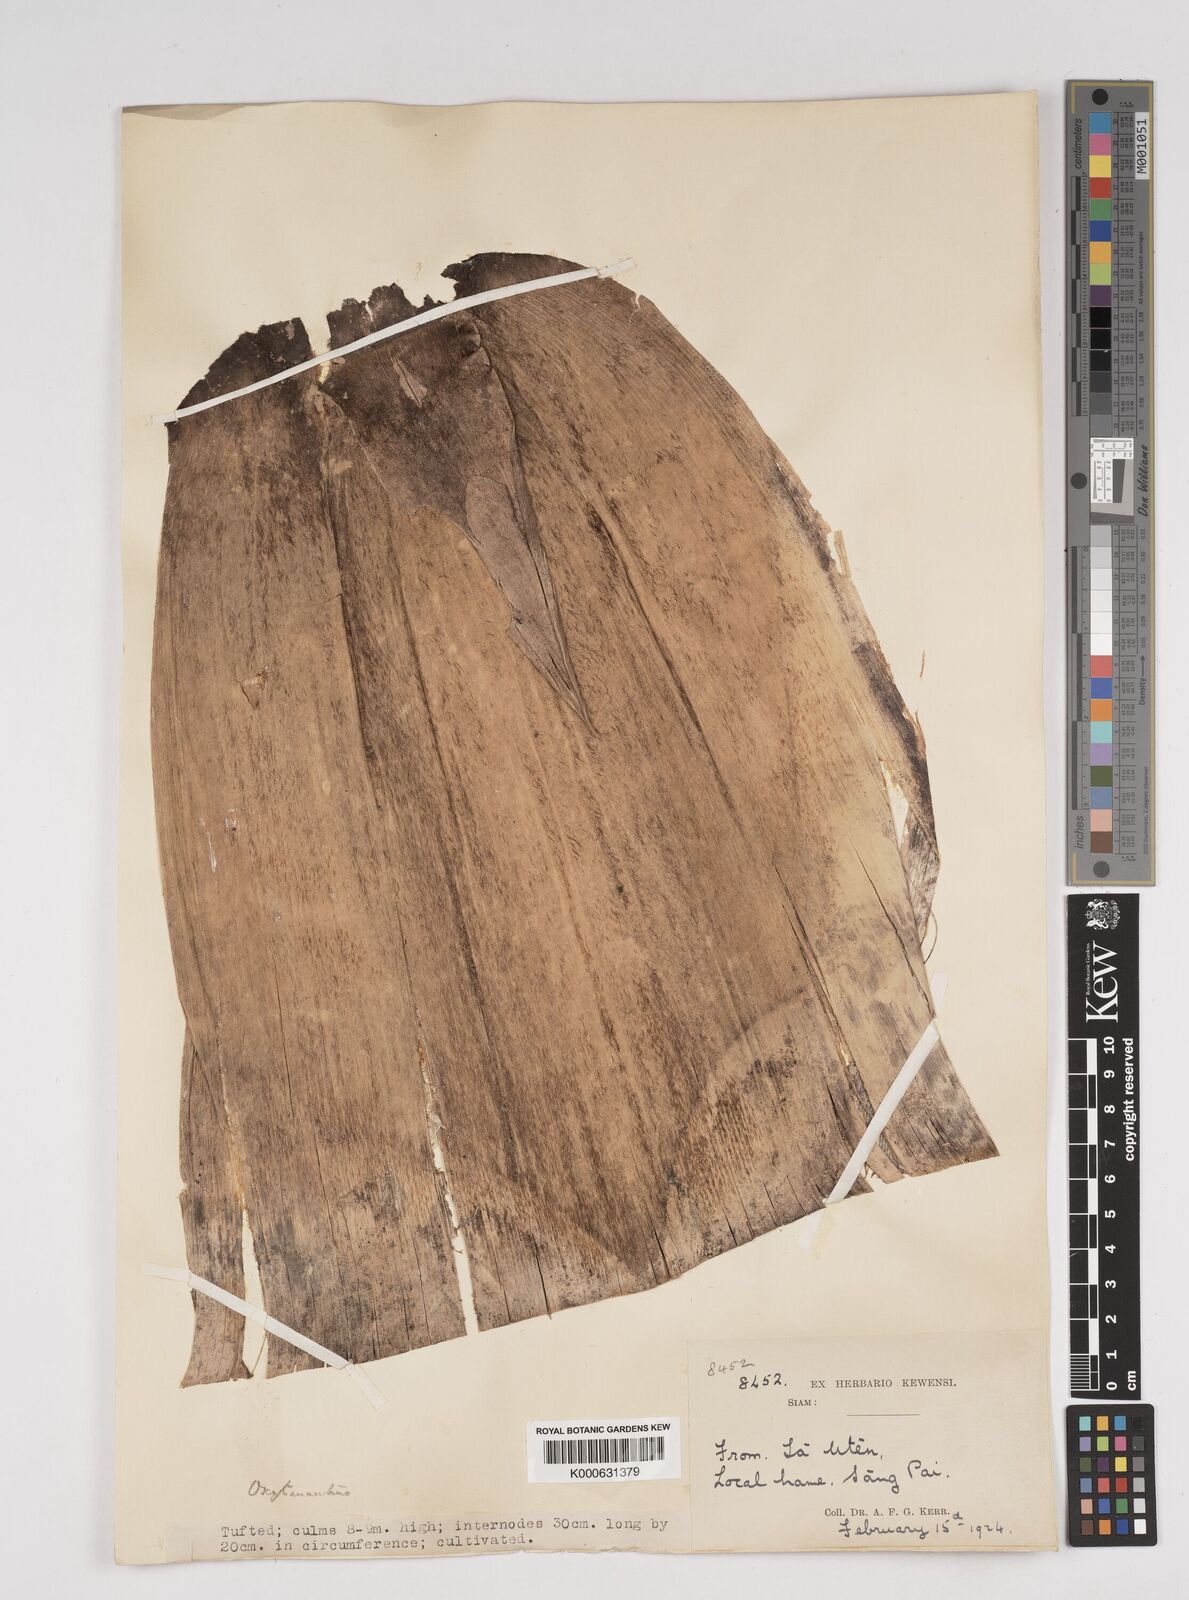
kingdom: Plantae
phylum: Tracheophyta
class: Liliopsida
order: Poales
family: Poaceae
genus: Dendrocalamus
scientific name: Dendrocalamus
